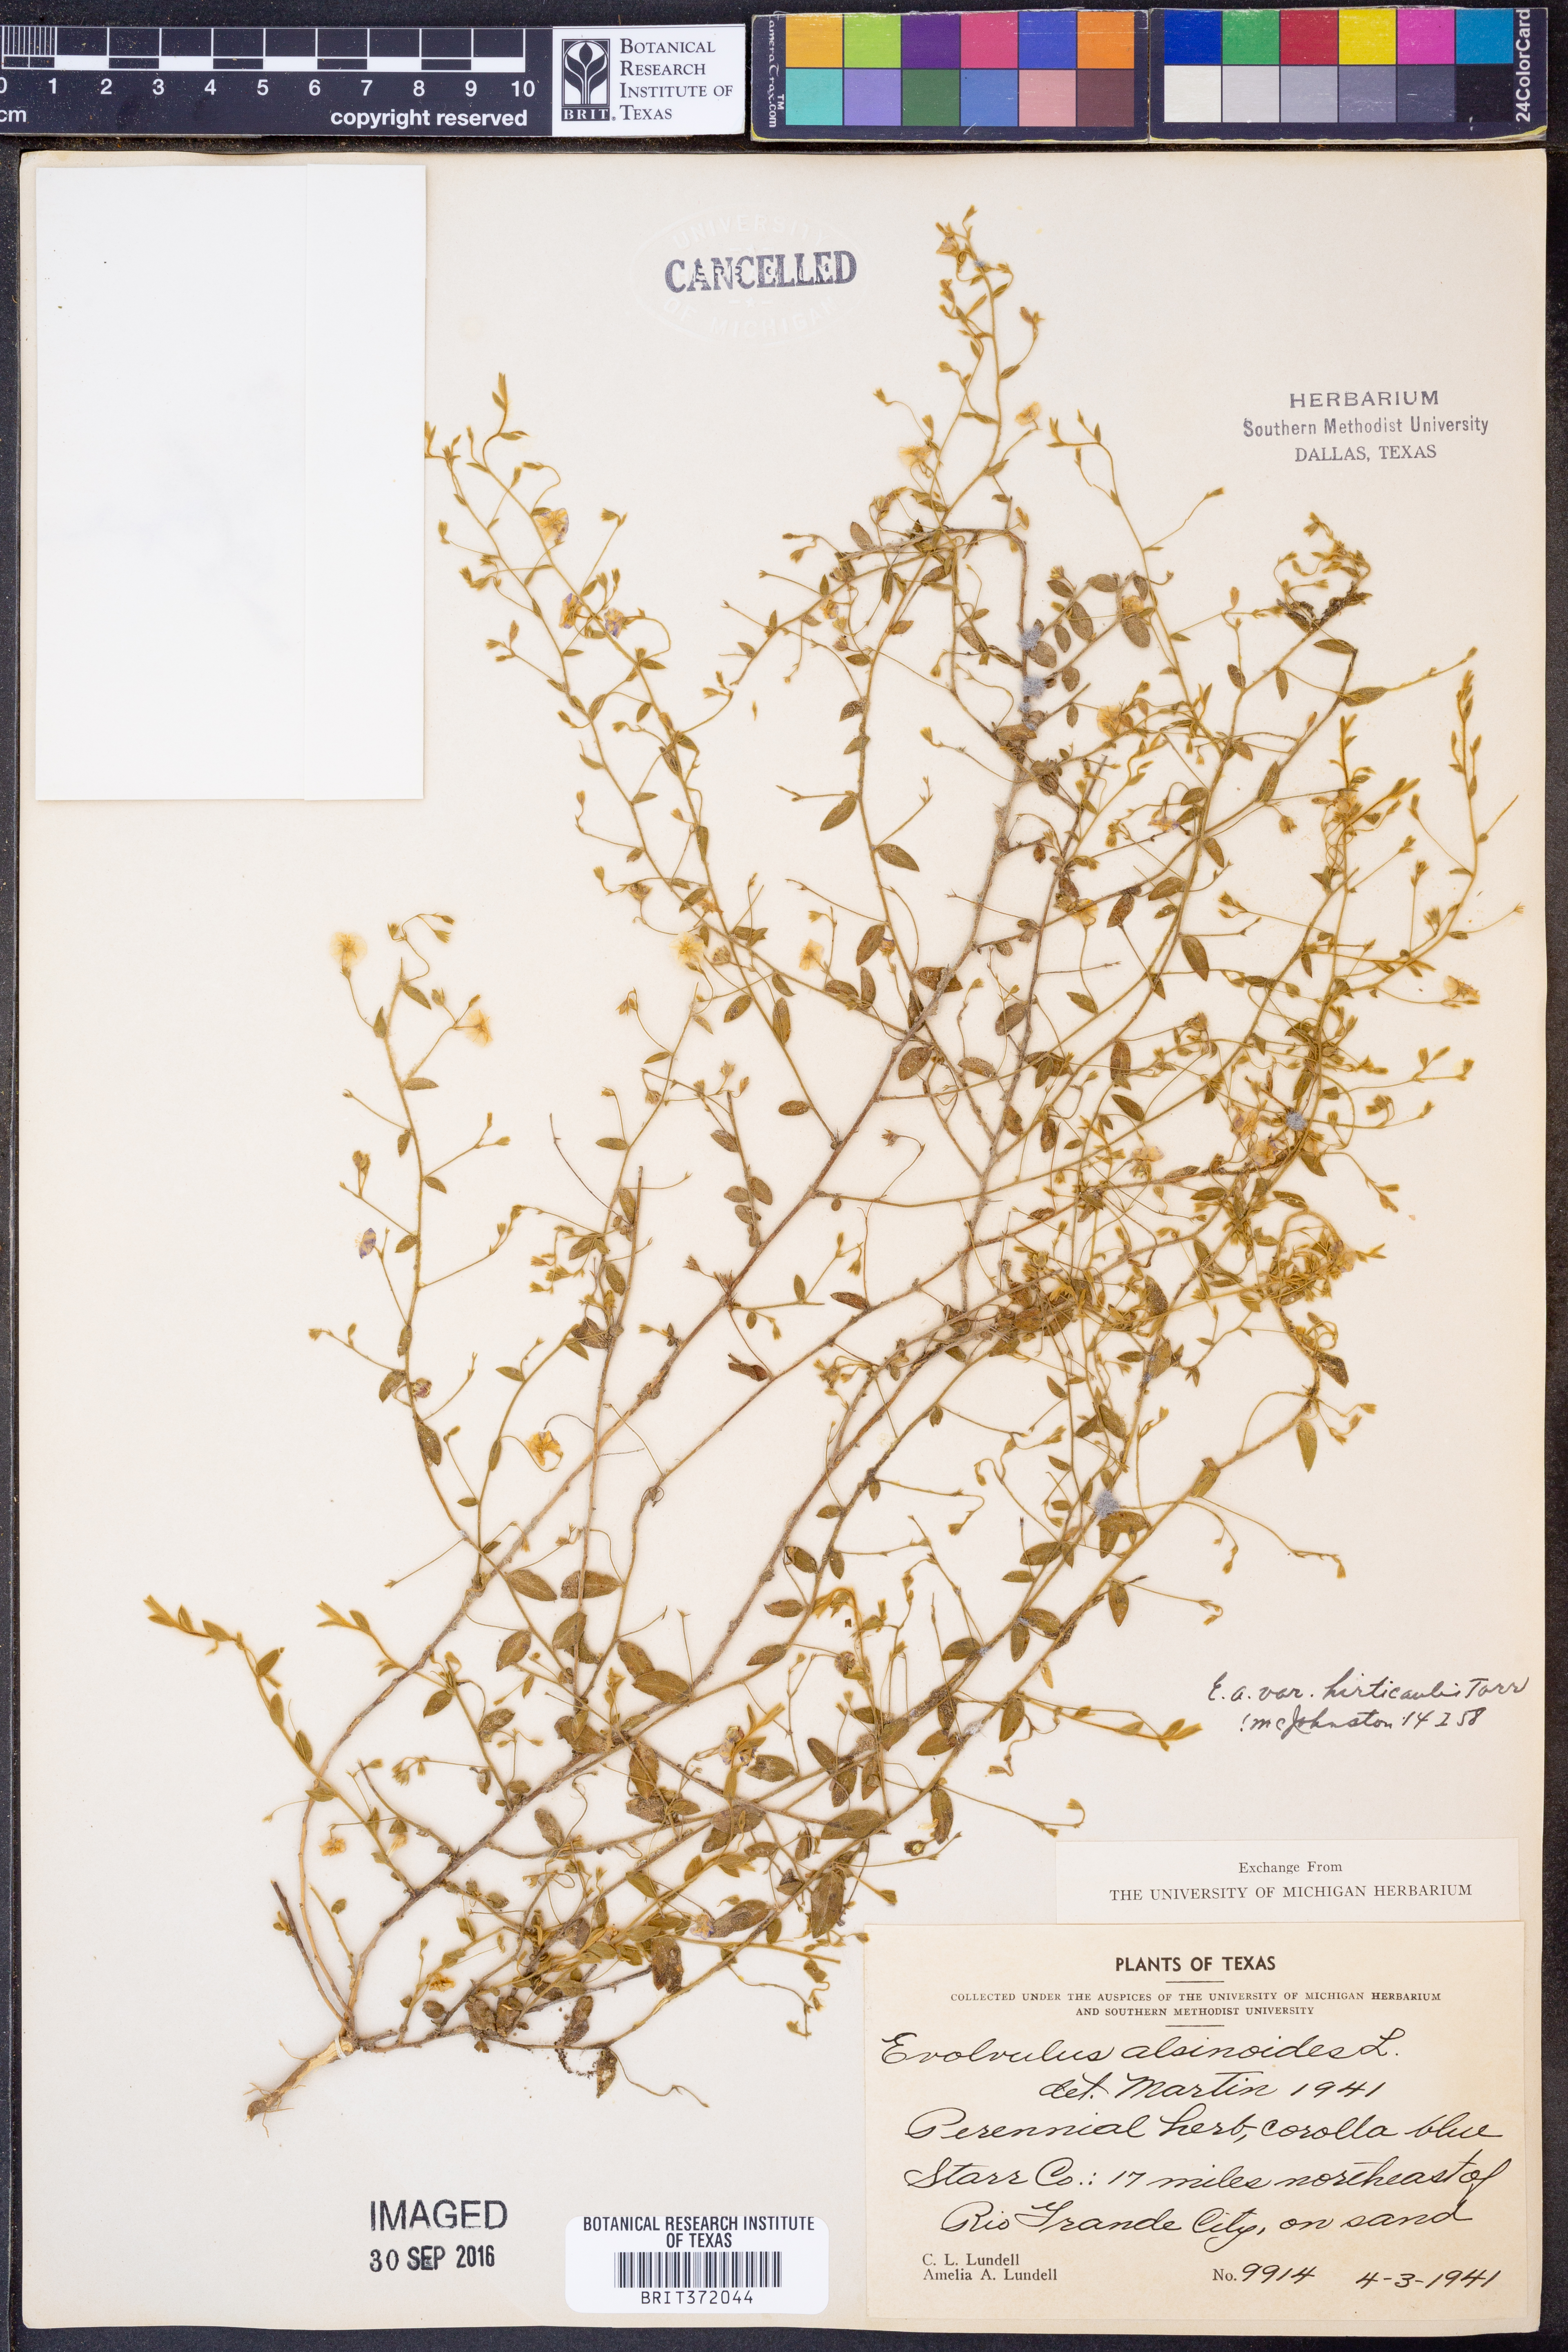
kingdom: Plantae
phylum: Tracheophyta
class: Magnoliopsida
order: Solanales
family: Convolvulaceae
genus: Evolvulus
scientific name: Evolvulus alsinoides
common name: Slender dwarf morning-glory
